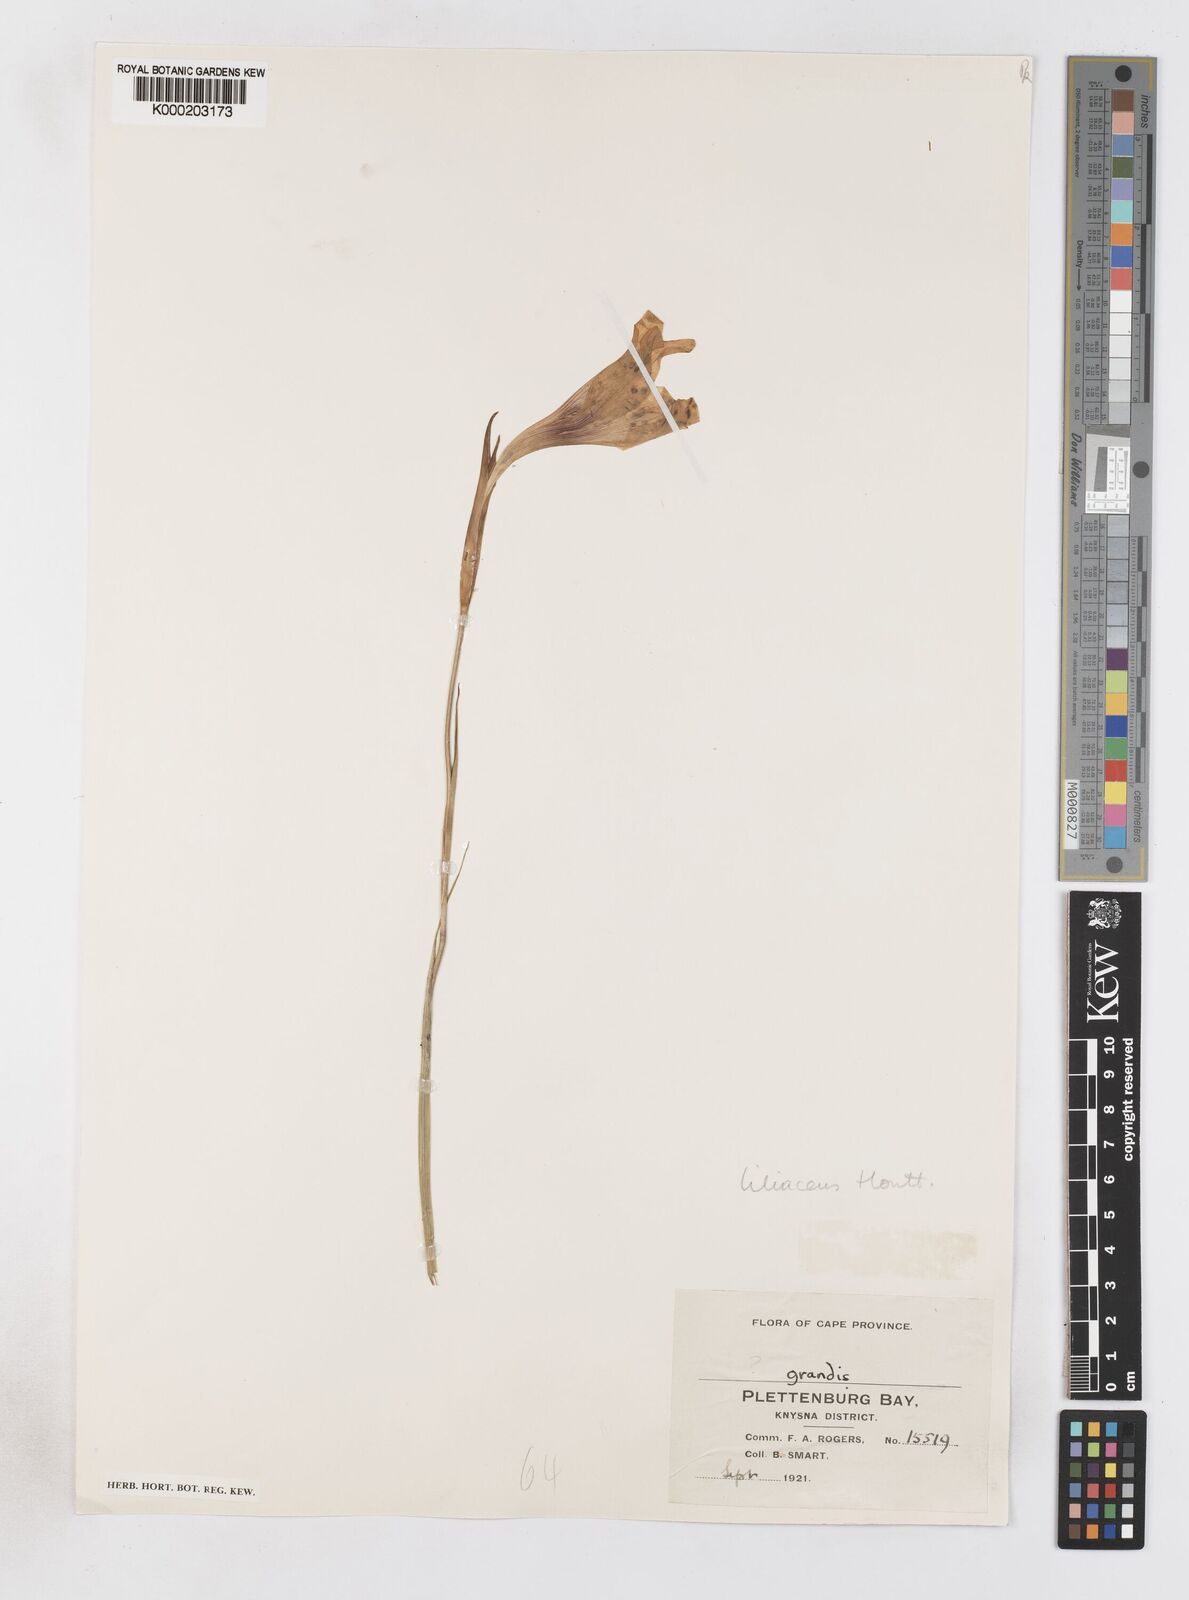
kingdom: Plantae
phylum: Tracheophyta
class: Liliopsida
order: Asparagales
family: Iridaceae
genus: Gladiolus
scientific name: Gladiolus liliaceus
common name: Large brown afrikaner
